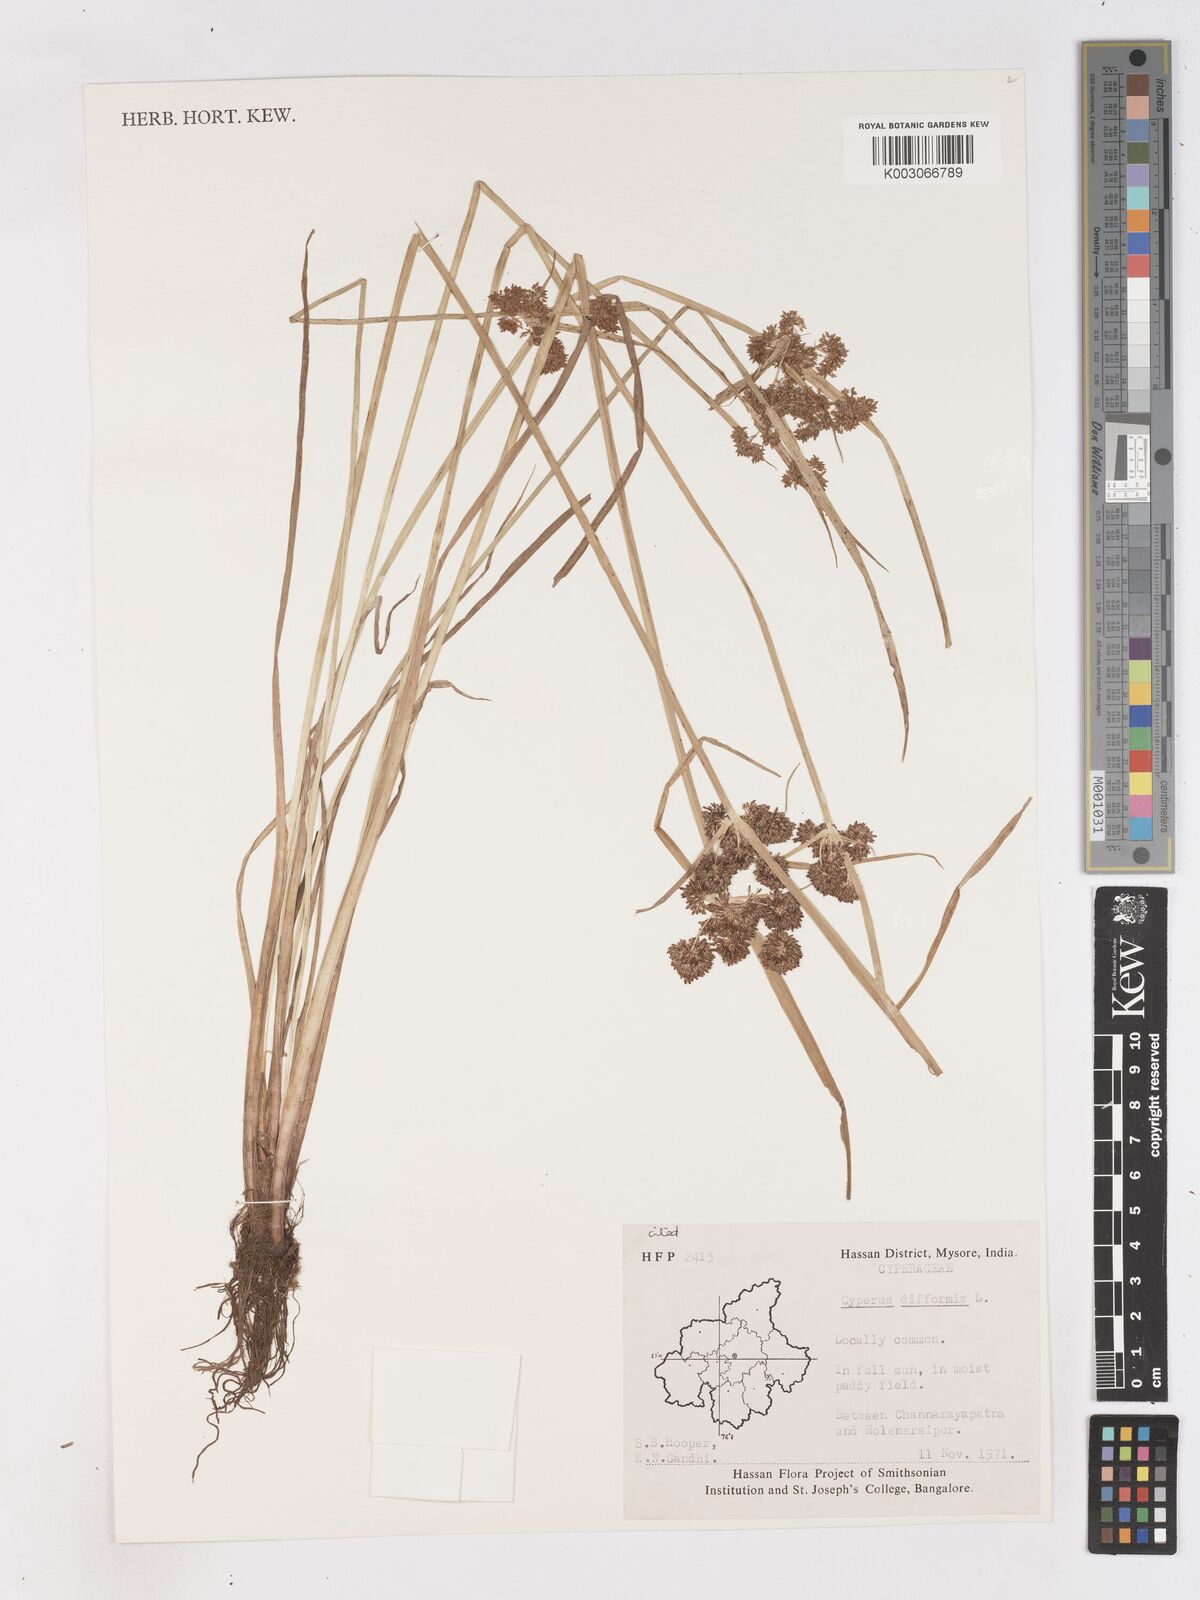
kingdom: Plantae
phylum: Tracheophyta
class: Liliopsida
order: Poales
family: Cyperaceae
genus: Cyperus
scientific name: Cyperus difformis
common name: Variable flatsedge
